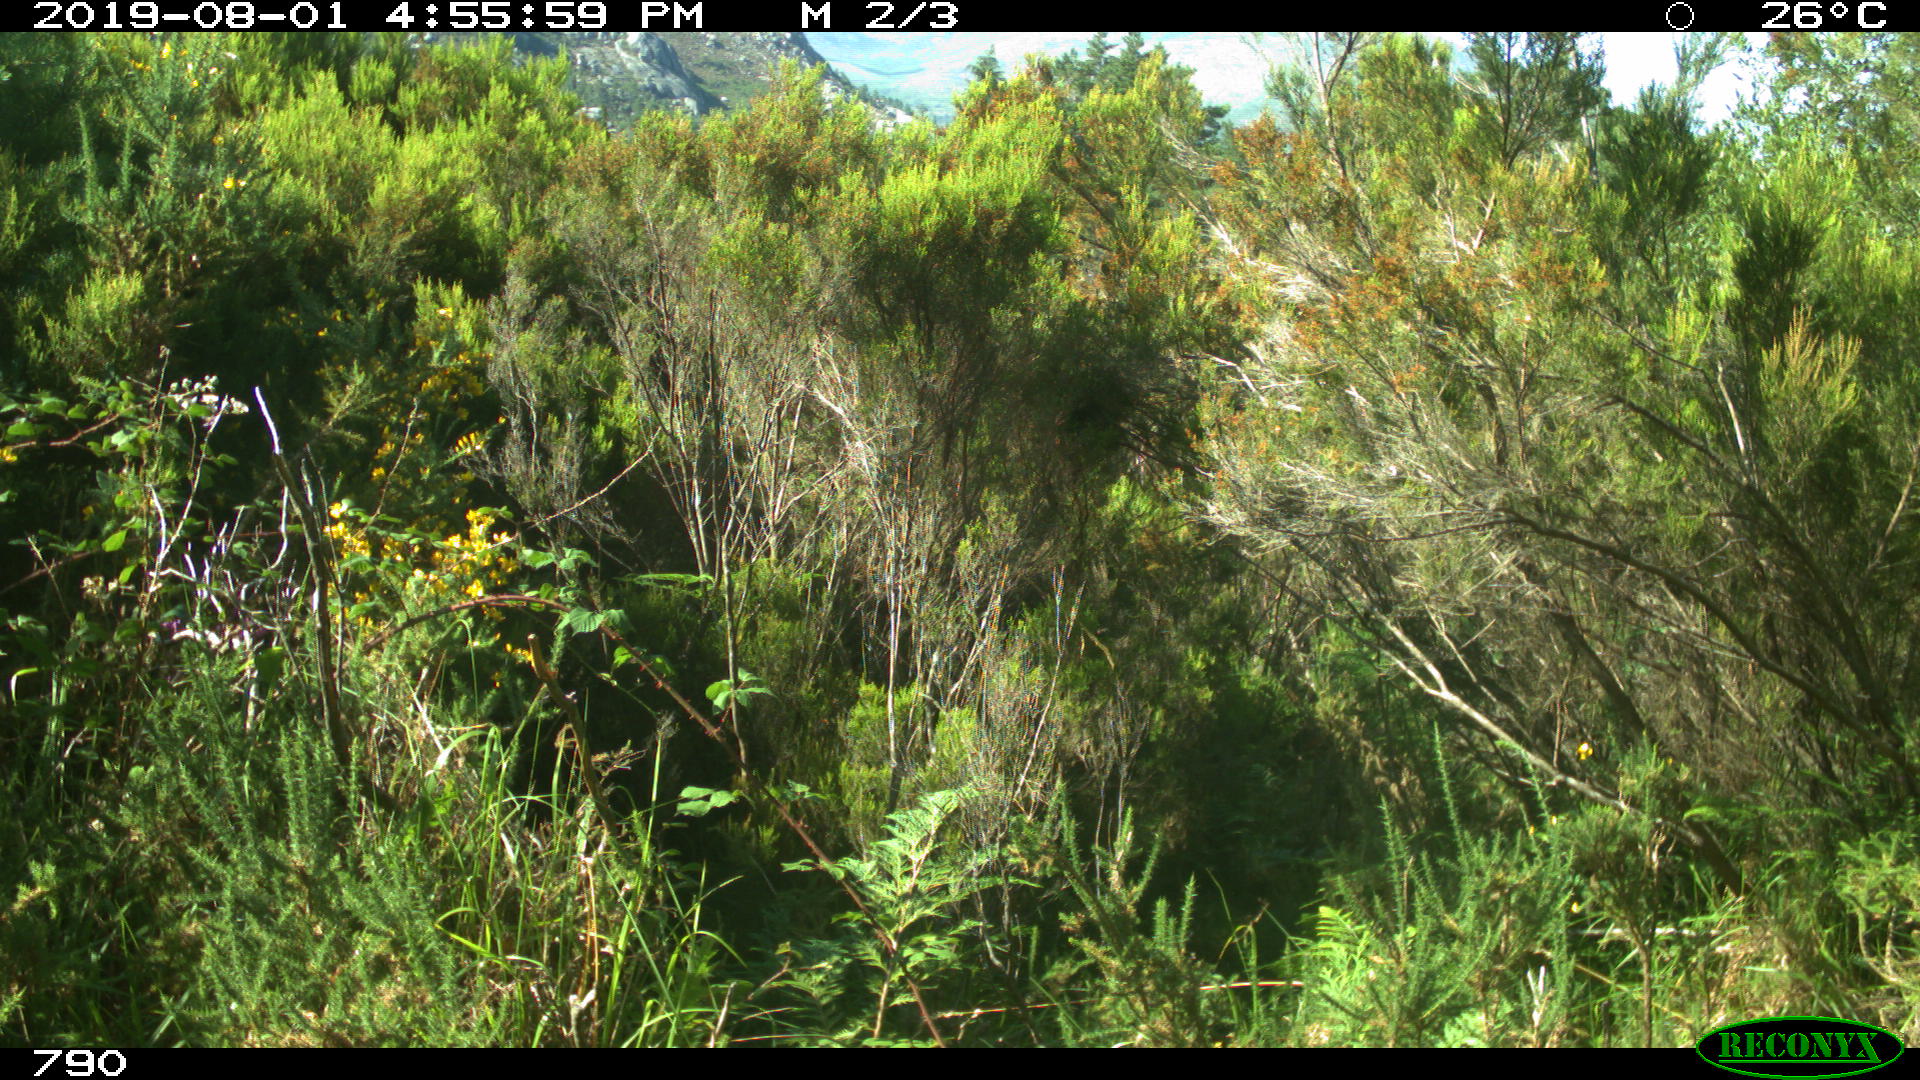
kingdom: Animalia
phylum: Chordata
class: Mammalia
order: Artiodactyla
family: Bovidae
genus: Bos
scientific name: Bos taurus
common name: Domesticated cattle
